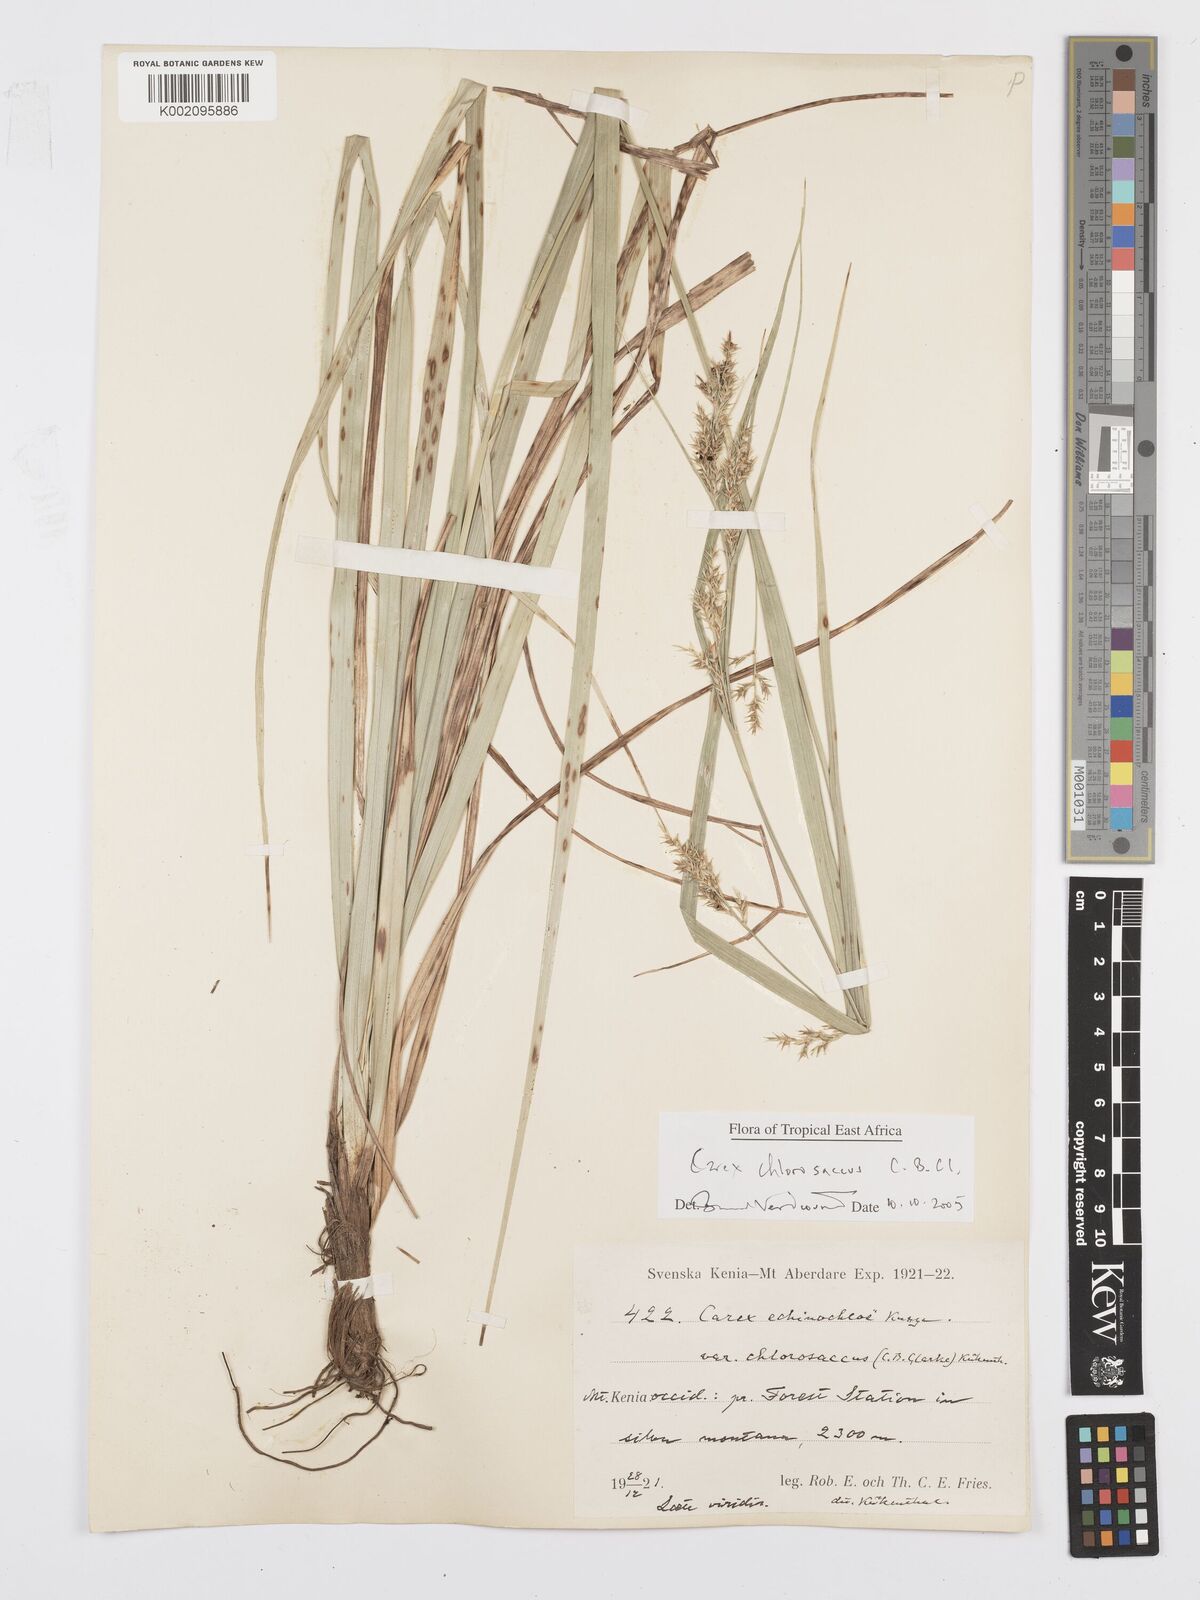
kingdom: Plantae
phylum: Tracheophyta
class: Liliopsida
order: Poales
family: Cyperaceae
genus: Carex
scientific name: Carex chlorosaccus
